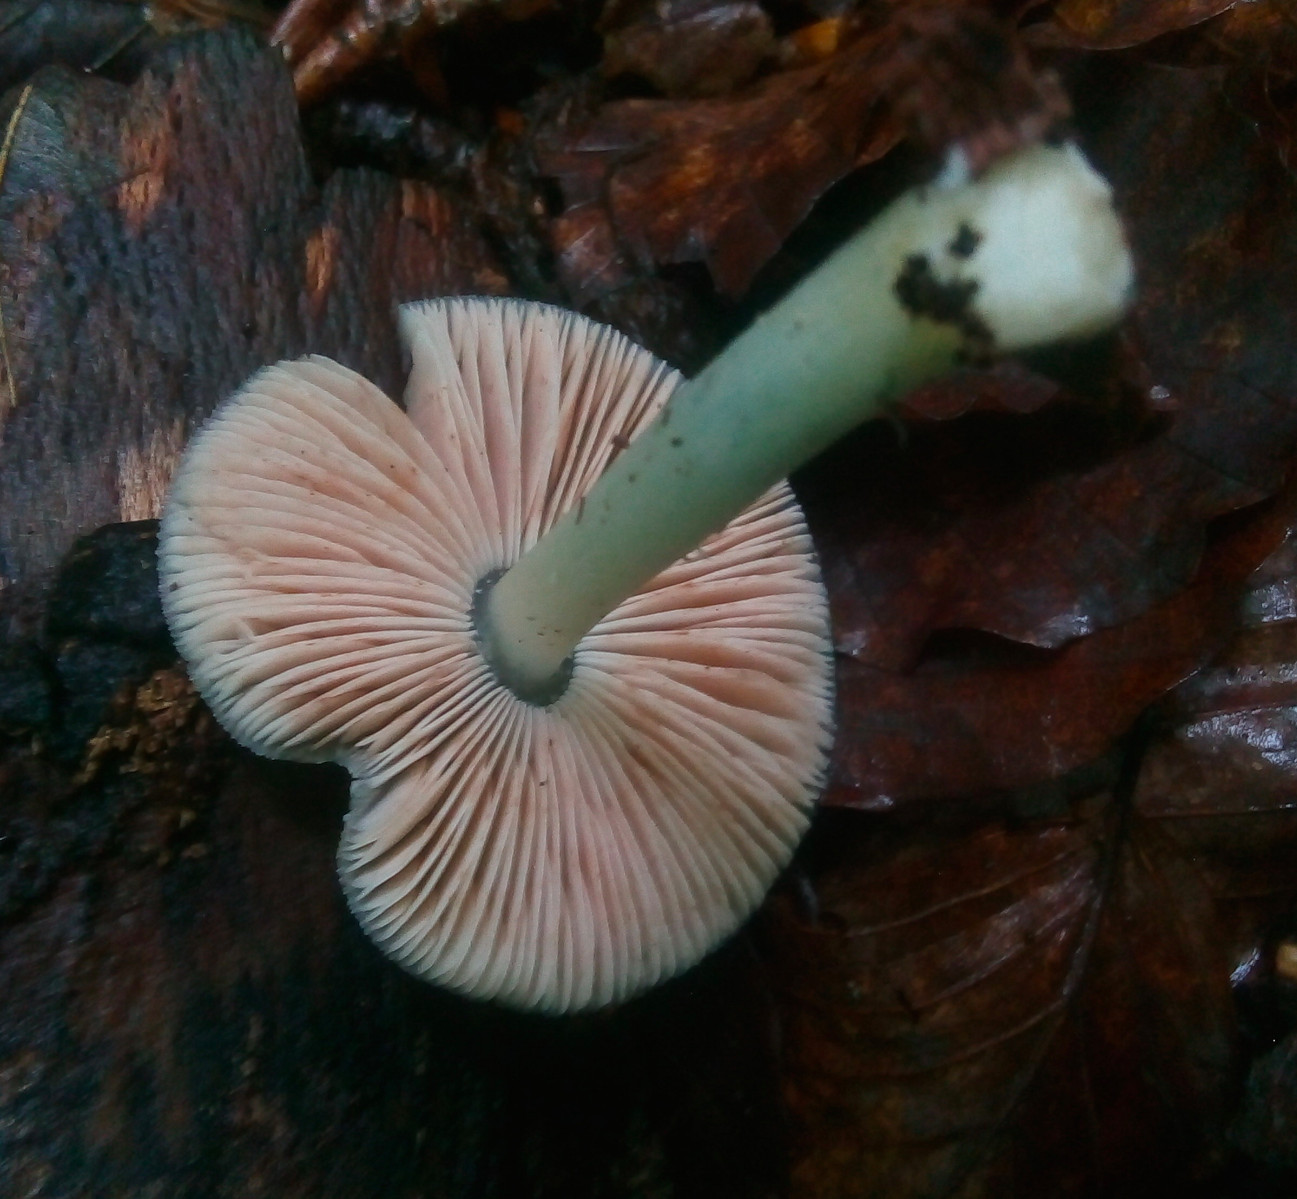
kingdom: Fungi
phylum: Basidiomycota
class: Agaricomycetes
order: Agaricales
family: Pluteaceae
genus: Pluteus
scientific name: Pluteus salicinus
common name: stiv skærmhat
